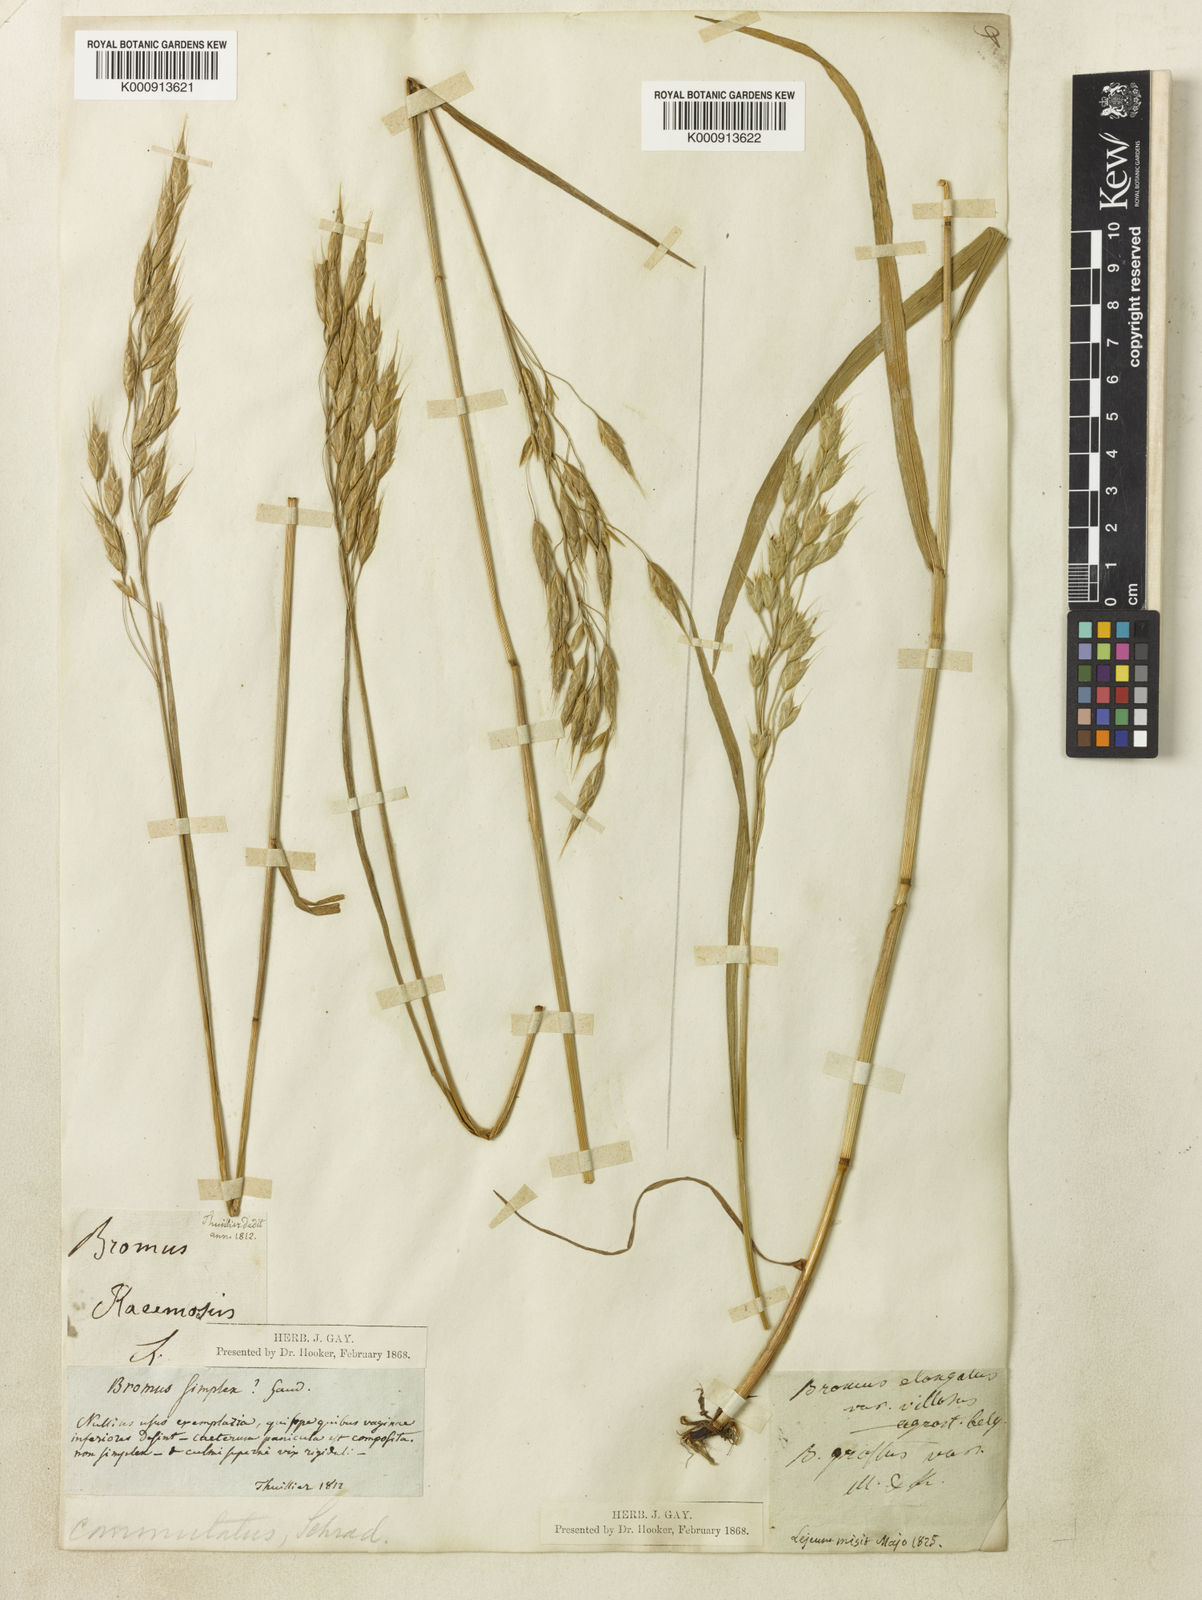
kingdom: Plantae
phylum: Tracheophyta
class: Liliopsida
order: Poales
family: Poaceae
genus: Bromus
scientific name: Bromus commutatus
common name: Meadow brome
